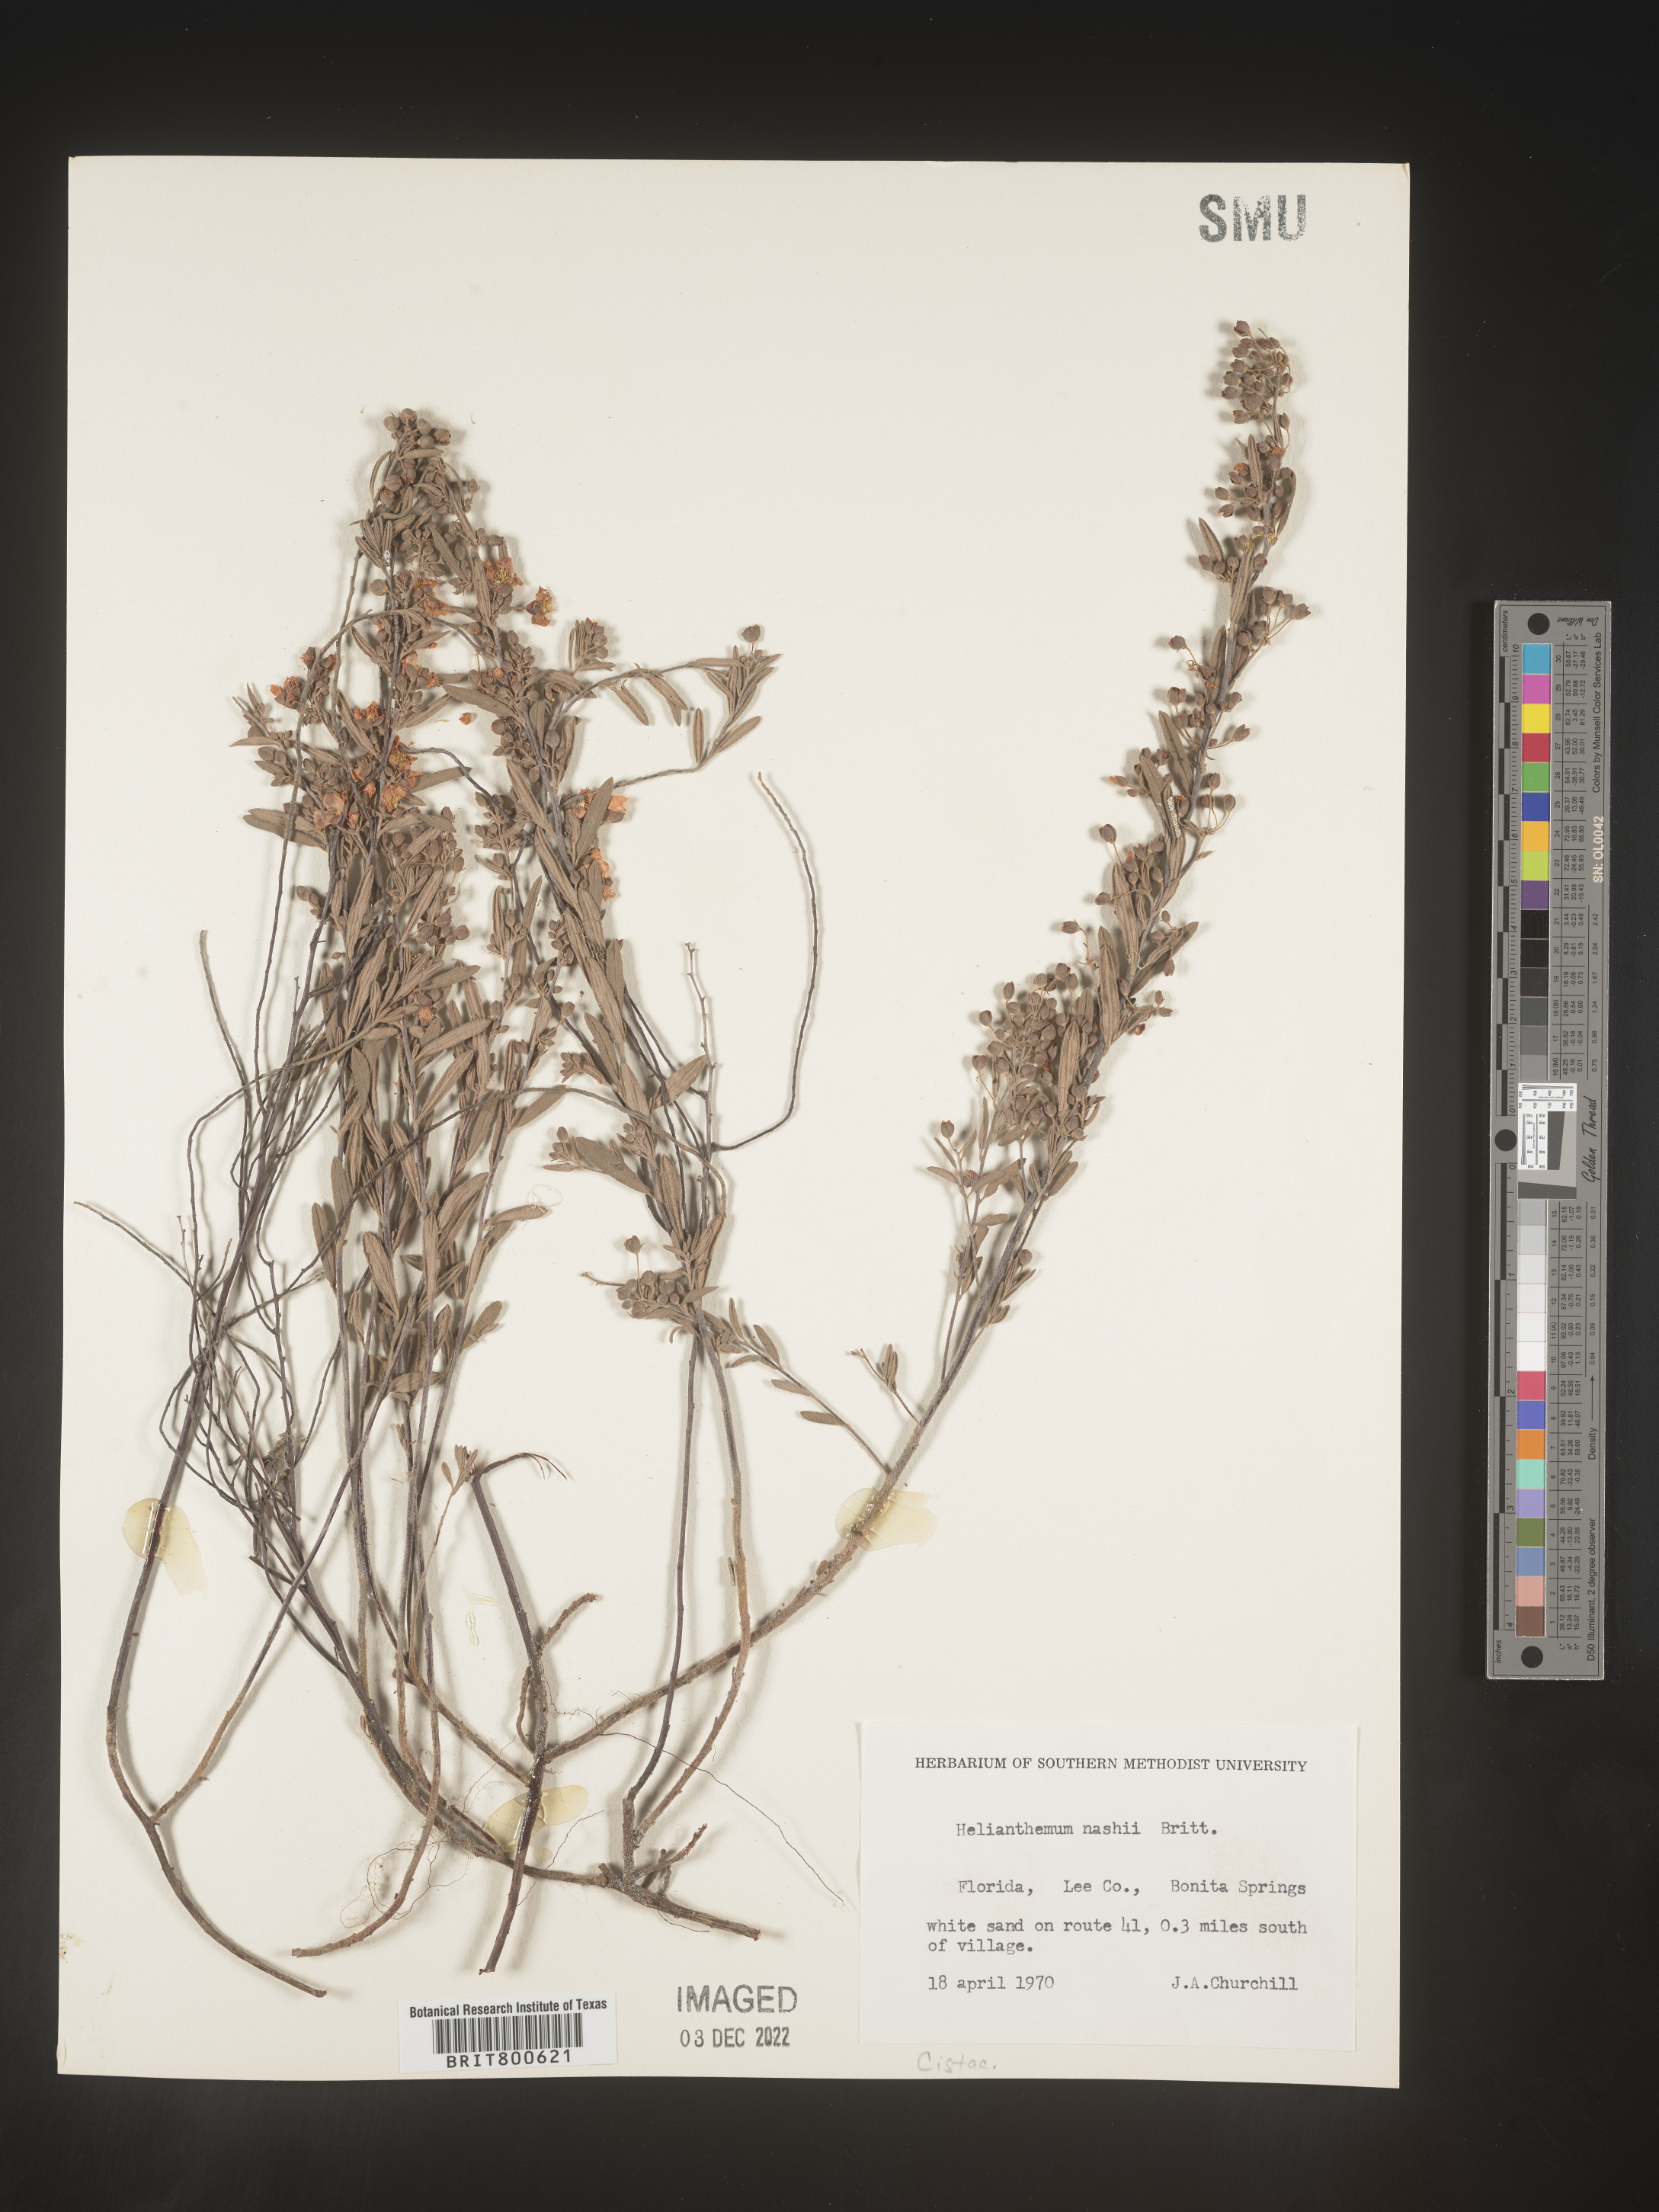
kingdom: Plantae
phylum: Tracheophyta
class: Magnoliopsida
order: Malvales
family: Cistaceae
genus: Helianthemum
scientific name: Helianthemum
